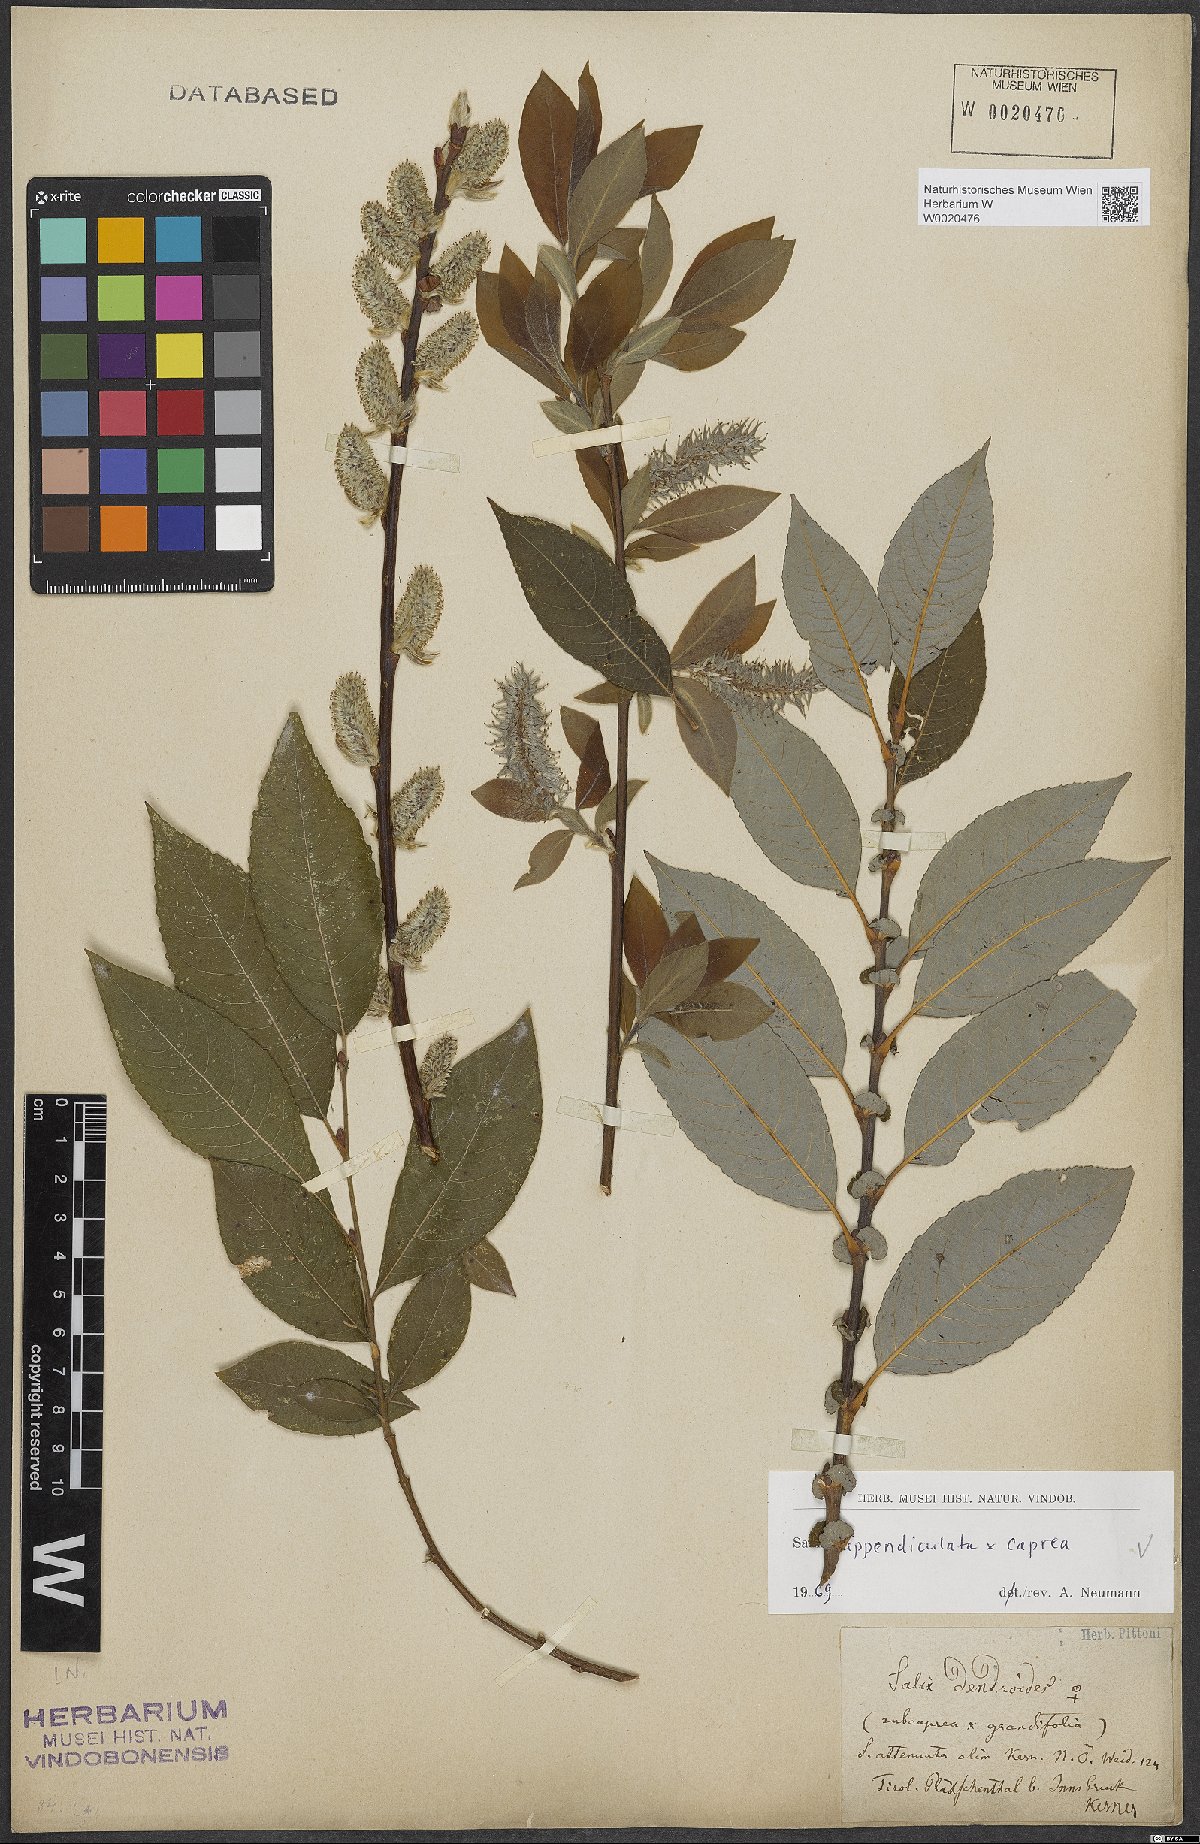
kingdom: Plantae
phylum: Tracheophyta
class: Magnoliopsida
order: Malpighiales
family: Salicaceae
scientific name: Salicaceae
